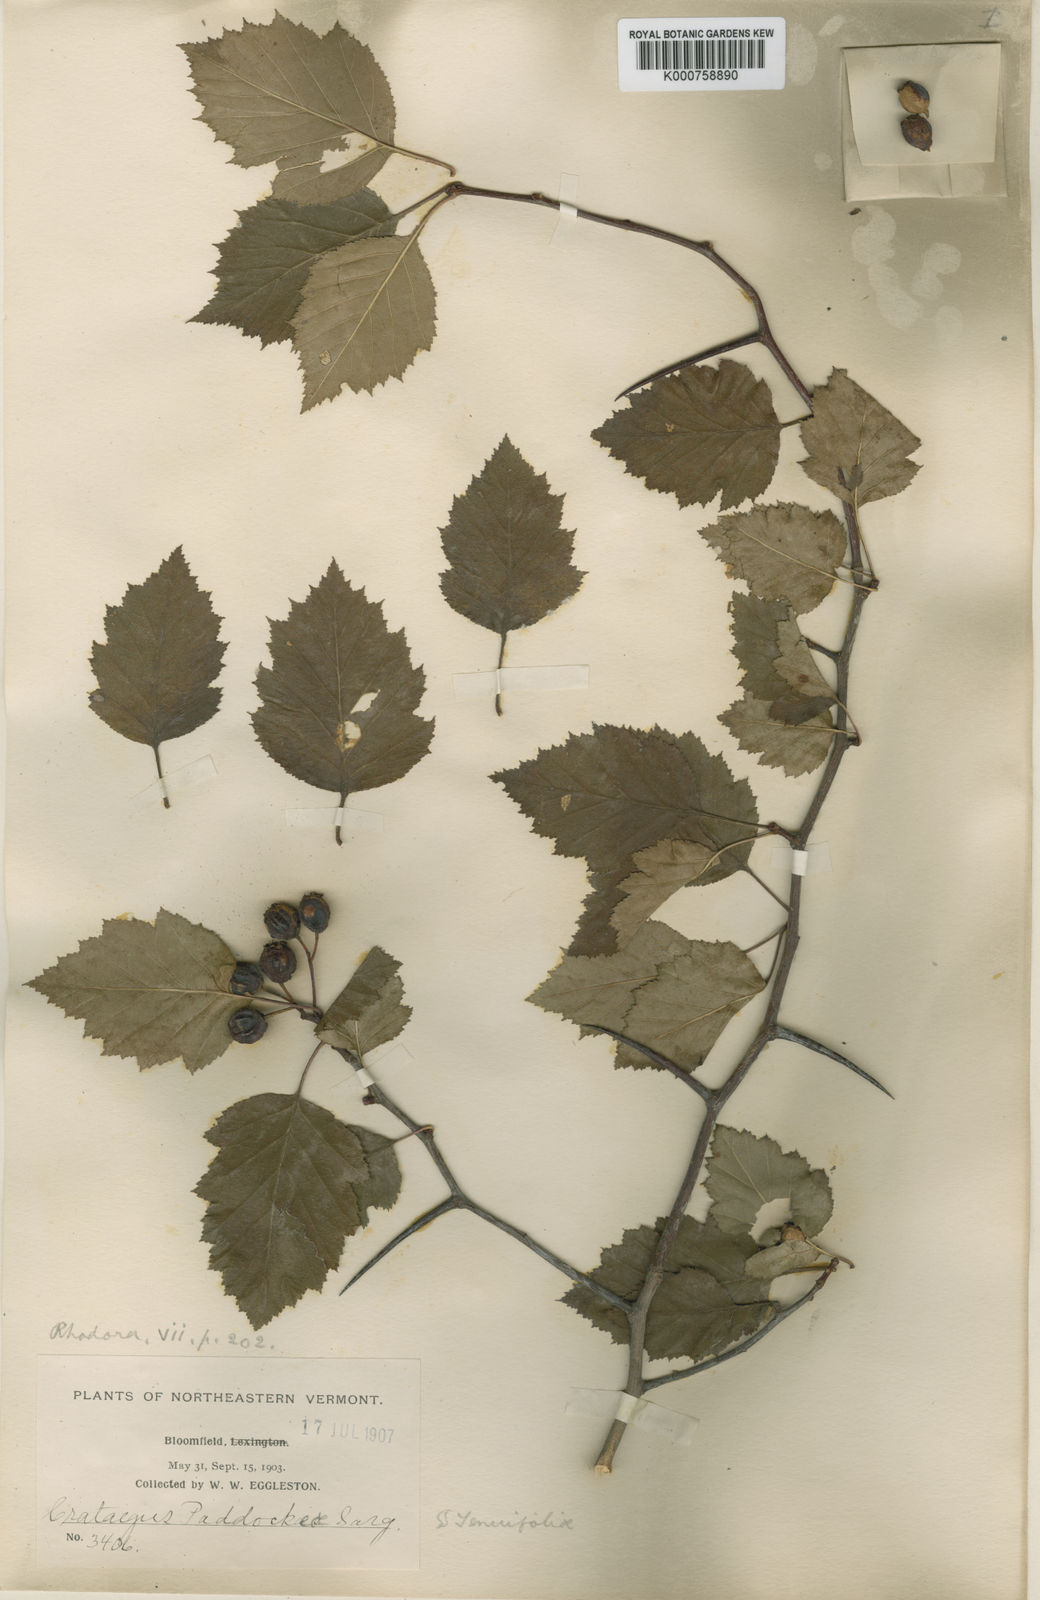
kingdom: Plantae
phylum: Tracheophyta
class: Magnoliopsida
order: Rosales
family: Rosaceae
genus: Crataegus
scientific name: Crataegus paddockeae
